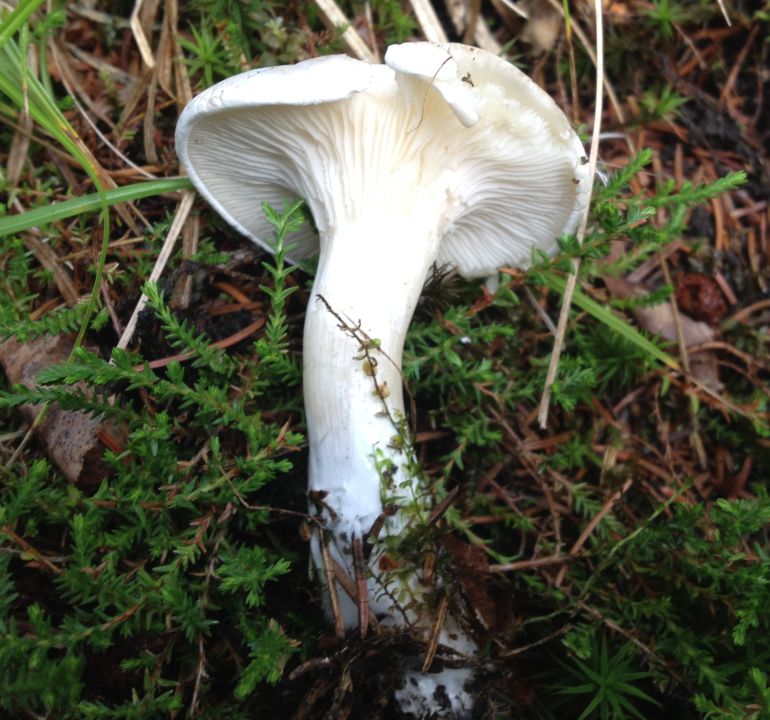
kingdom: Fungi
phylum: Basidiomycota
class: Agaricomycetes
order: Agaricales
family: Entolomataceae
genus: Clitopilus
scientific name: Clitopilus prunulus
